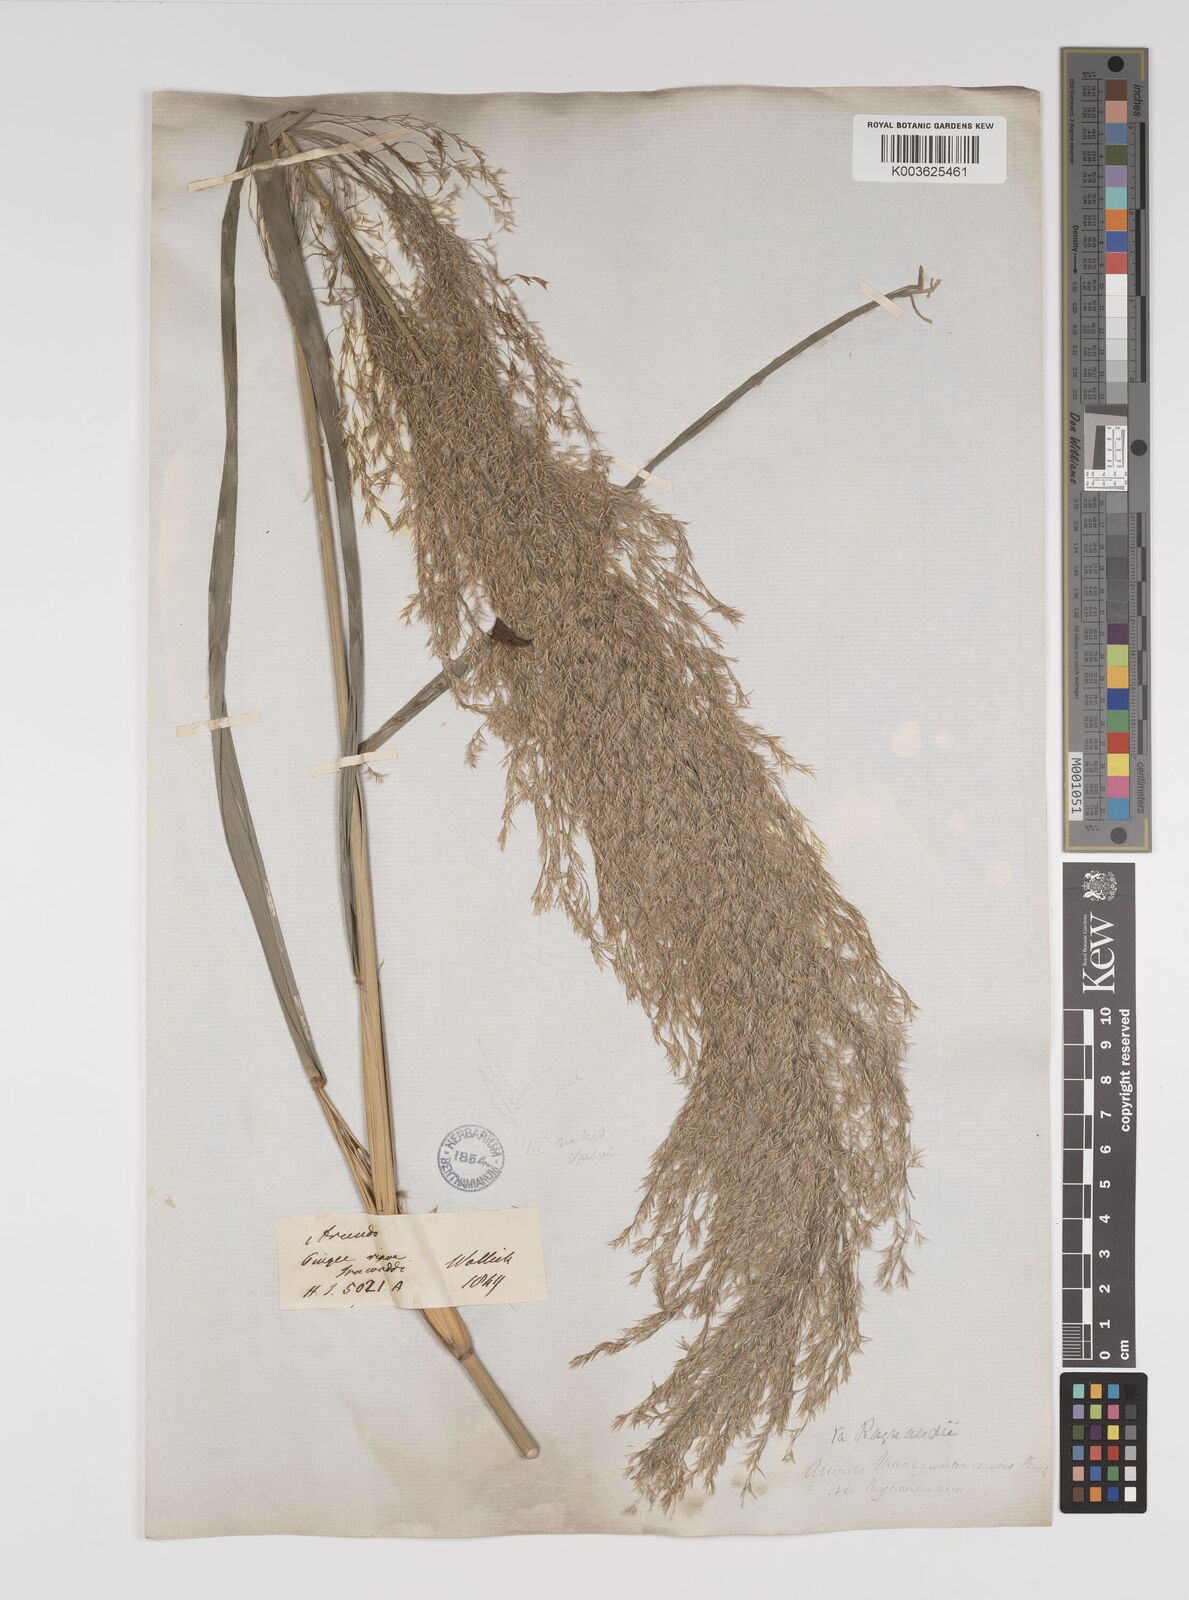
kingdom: Plantae
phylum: Tracheophyta
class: Liliopsida
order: Poales
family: Poaceae
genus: Neyraudia
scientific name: Neyraudia reynaudiana
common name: Silkreed
